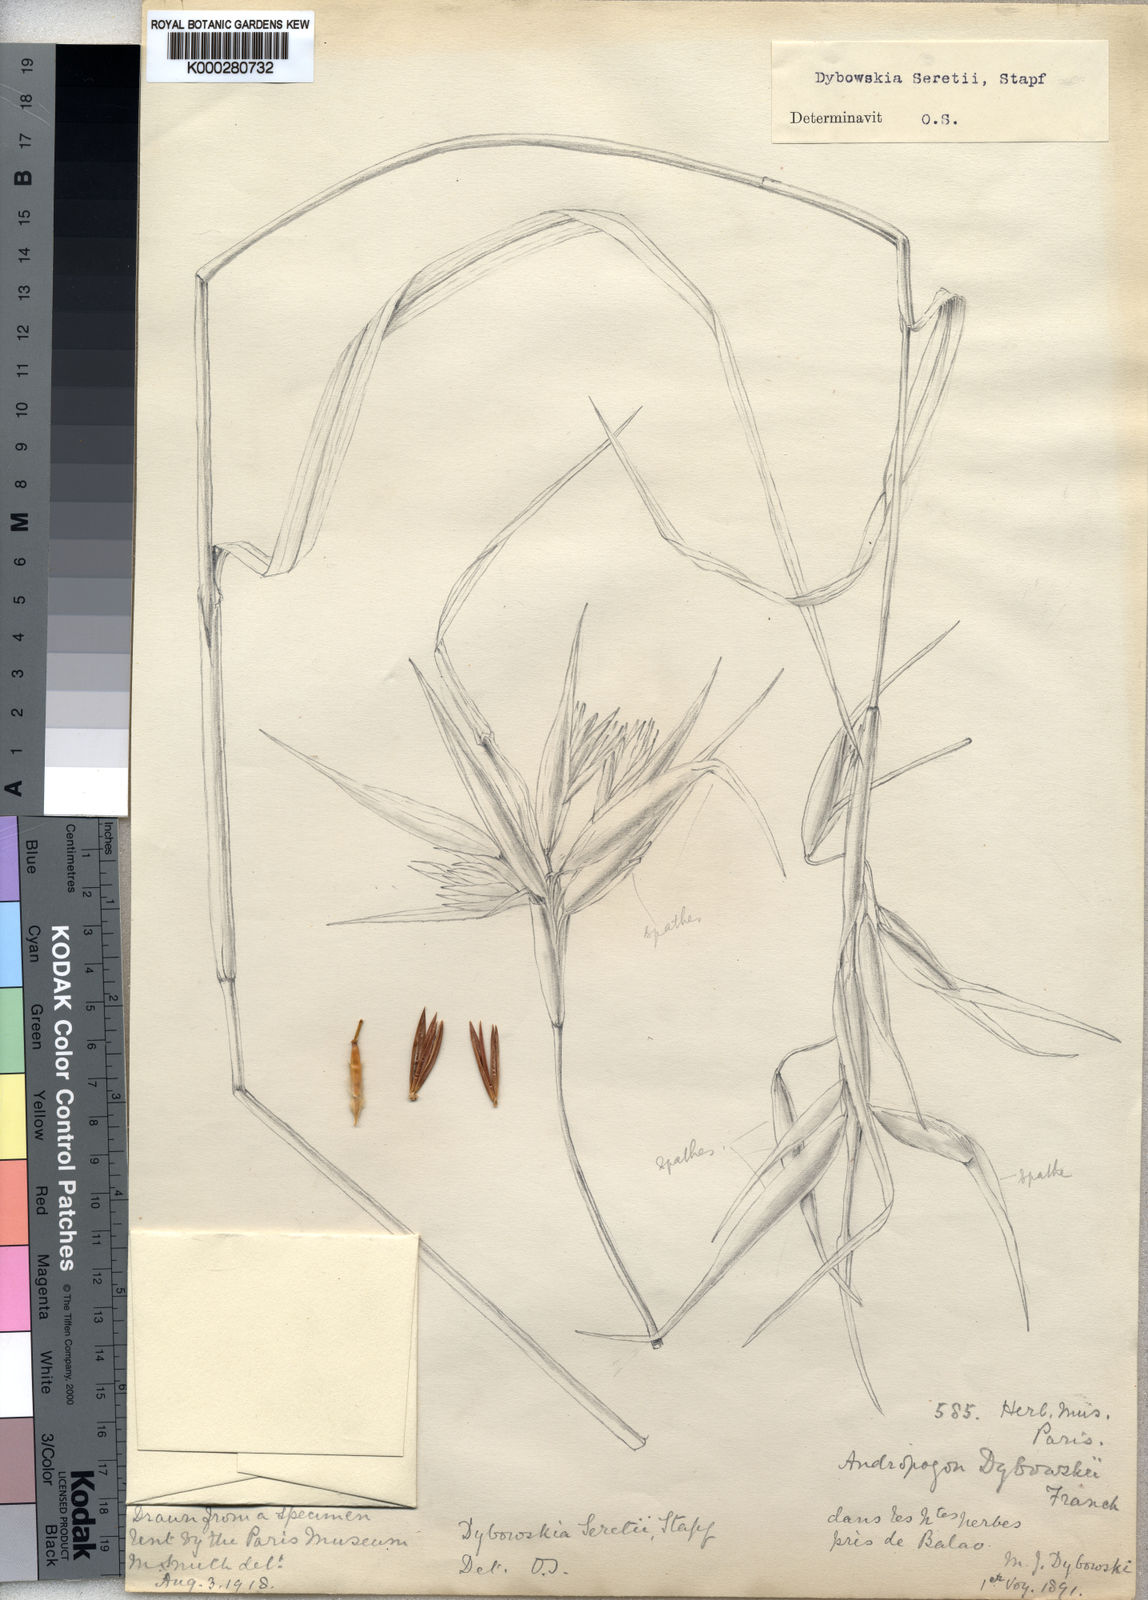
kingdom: Plantae
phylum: Tracheophyta
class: Liliopsida
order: Poales
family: Poaceae
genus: Hyparrhenia
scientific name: Hyparrhenia dybowskii
